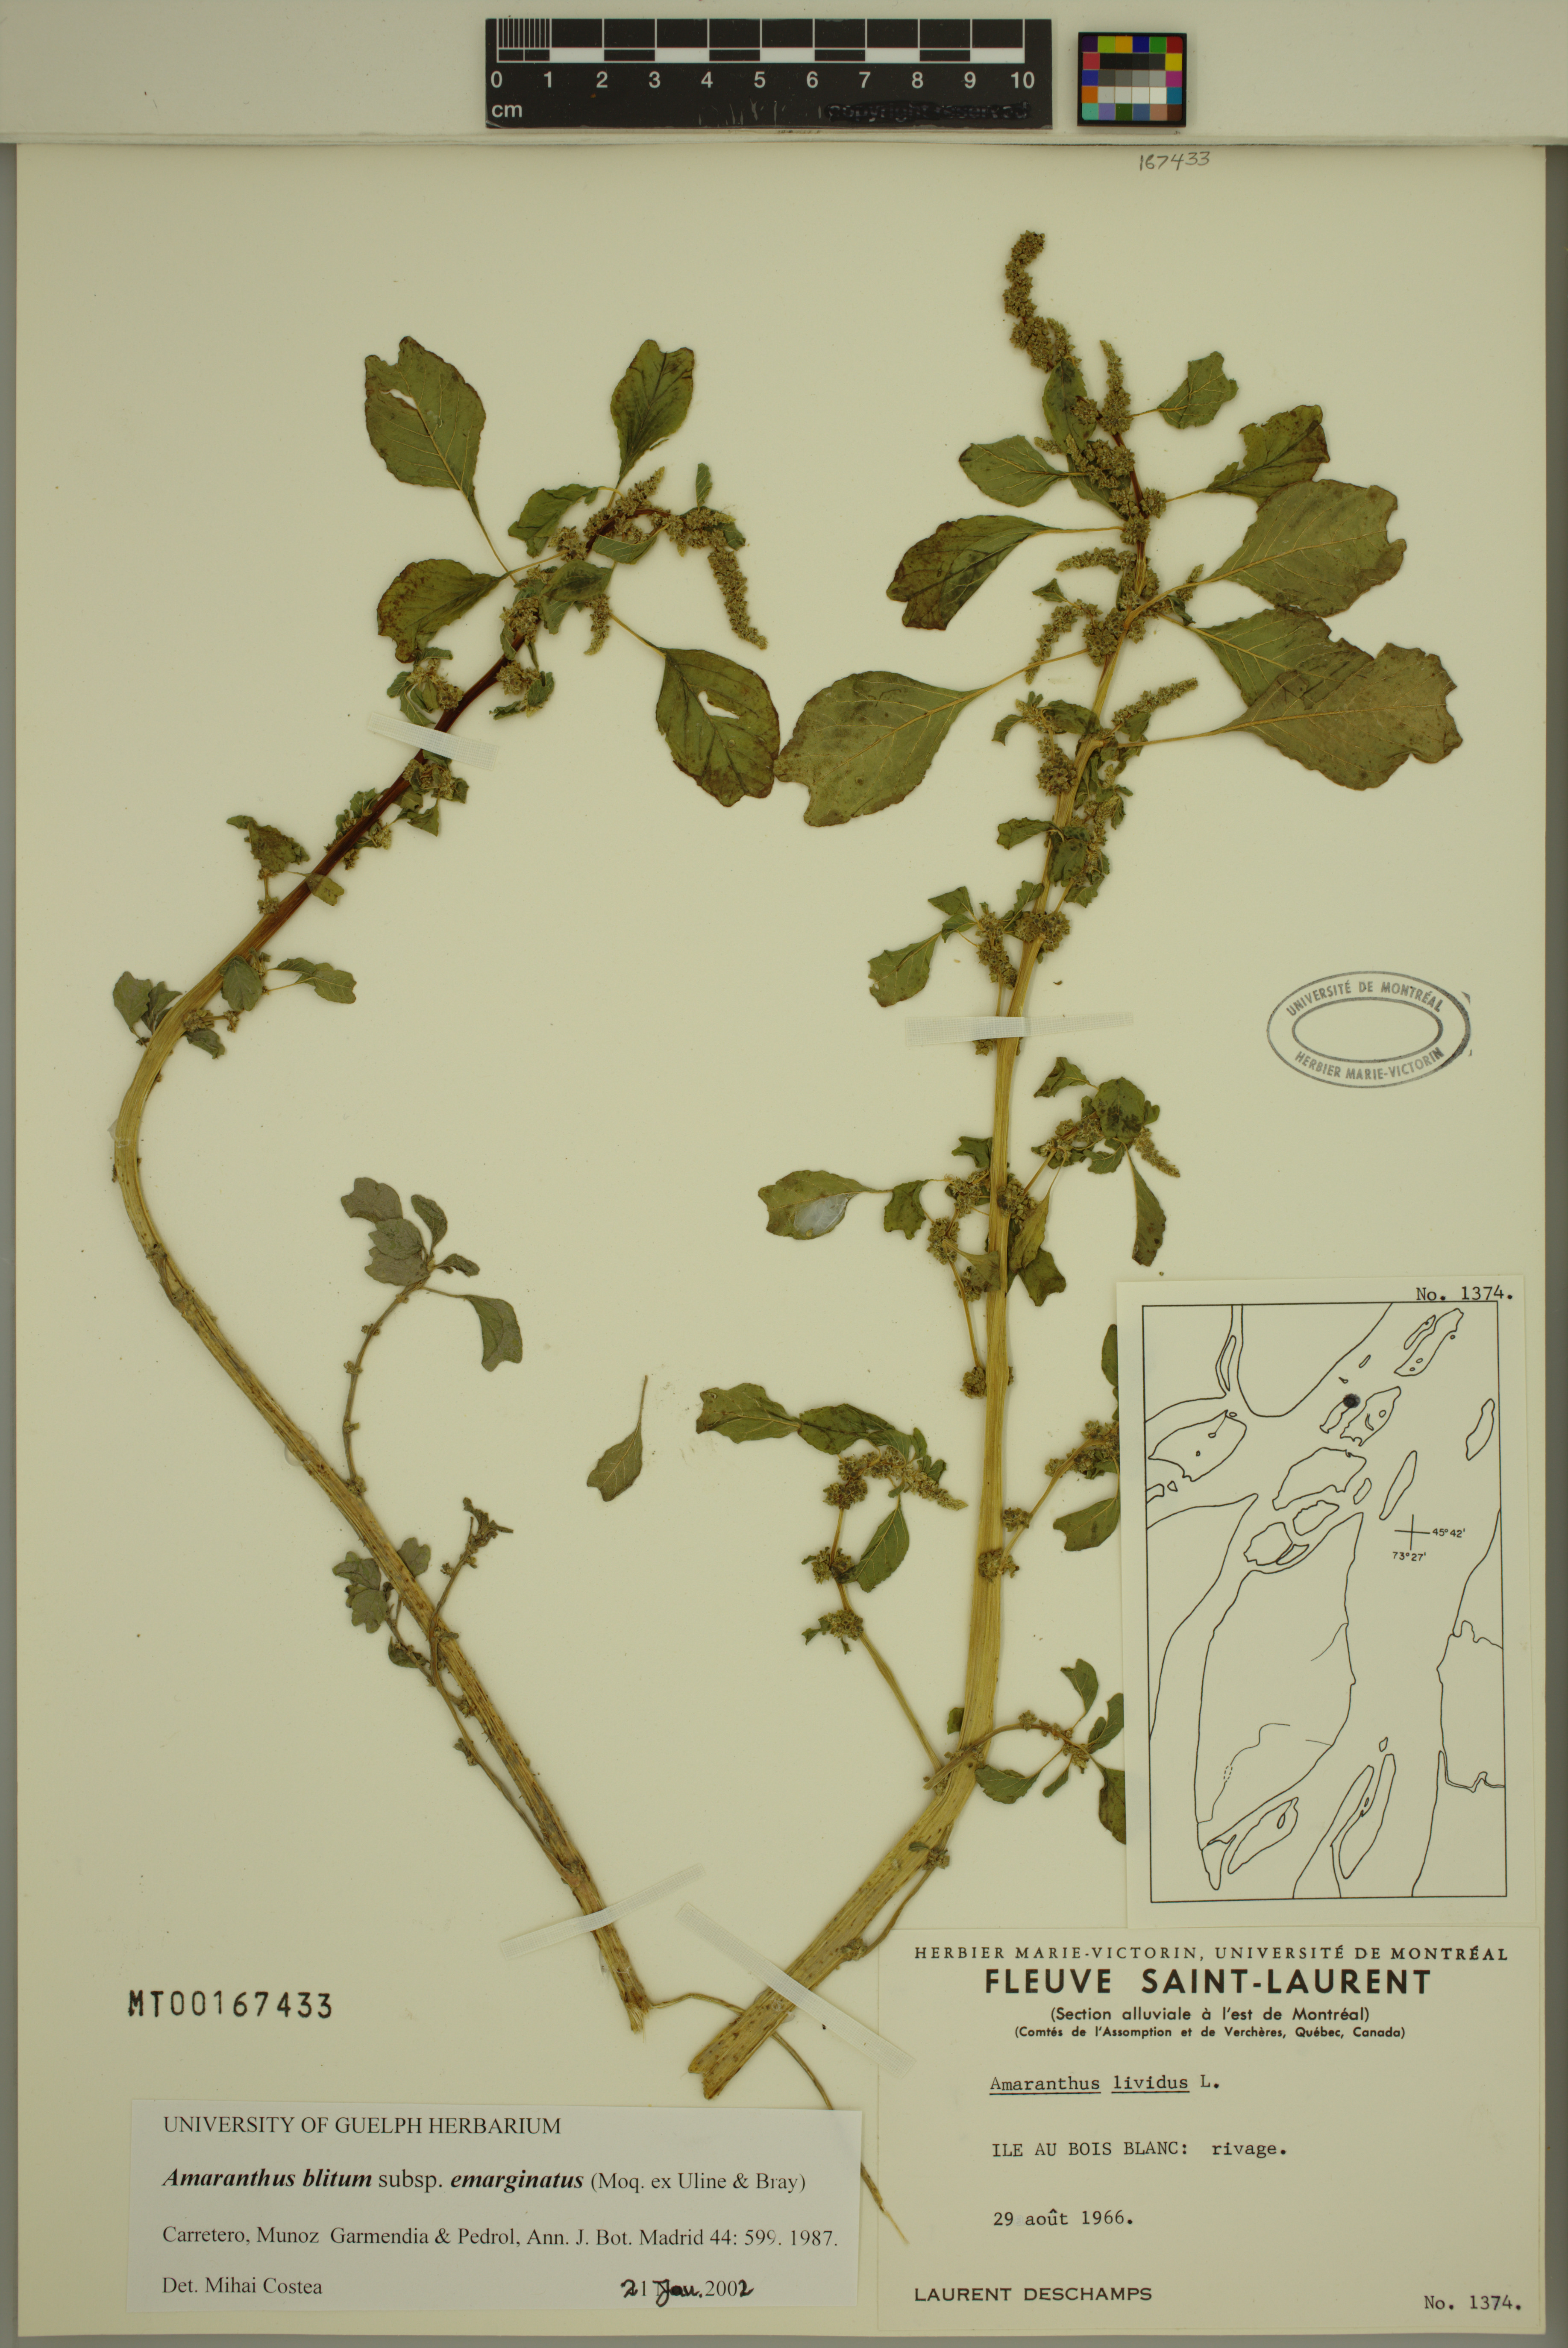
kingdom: Plantae
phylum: Tracheophyta
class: Magnoliopsida
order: Caryophyllales
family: Amaranthaceae
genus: Amaranthus
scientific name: Amaranthus emarginatus
